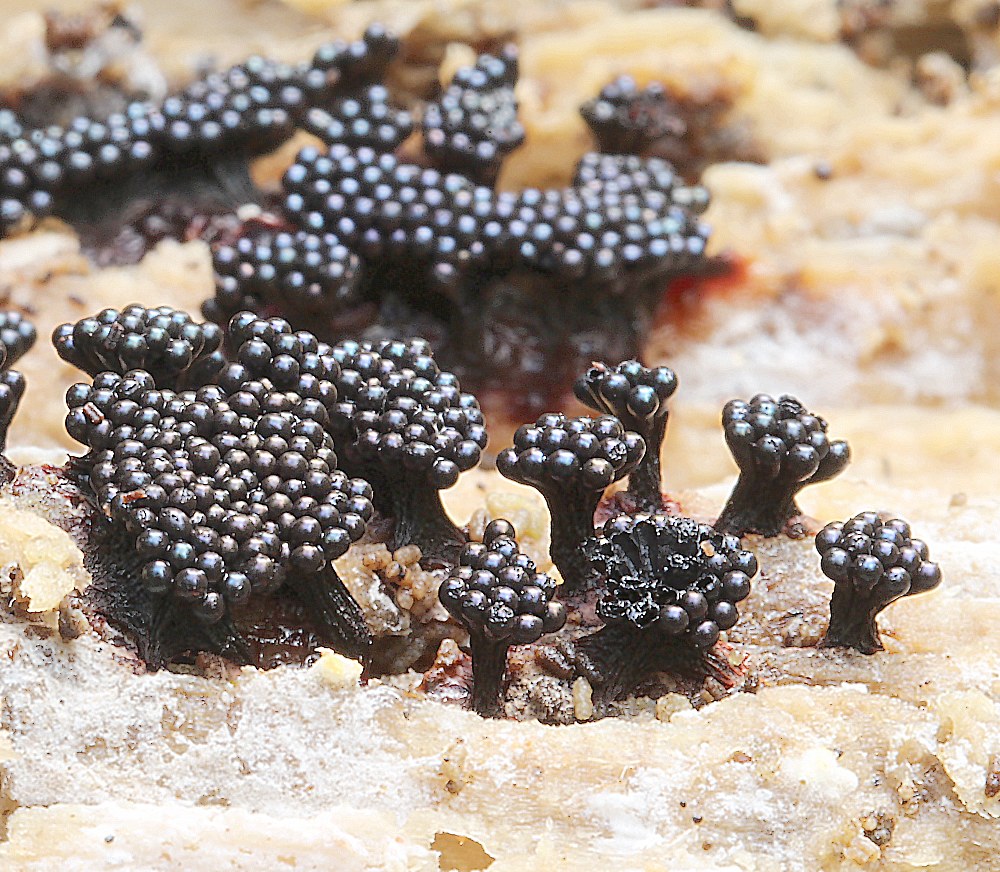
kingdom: Protozoa
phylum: Mycetozoa
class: Myxomycetes
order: Trichiales
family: Trichiaceae
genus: Metatrichia
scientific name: Metatrichia
